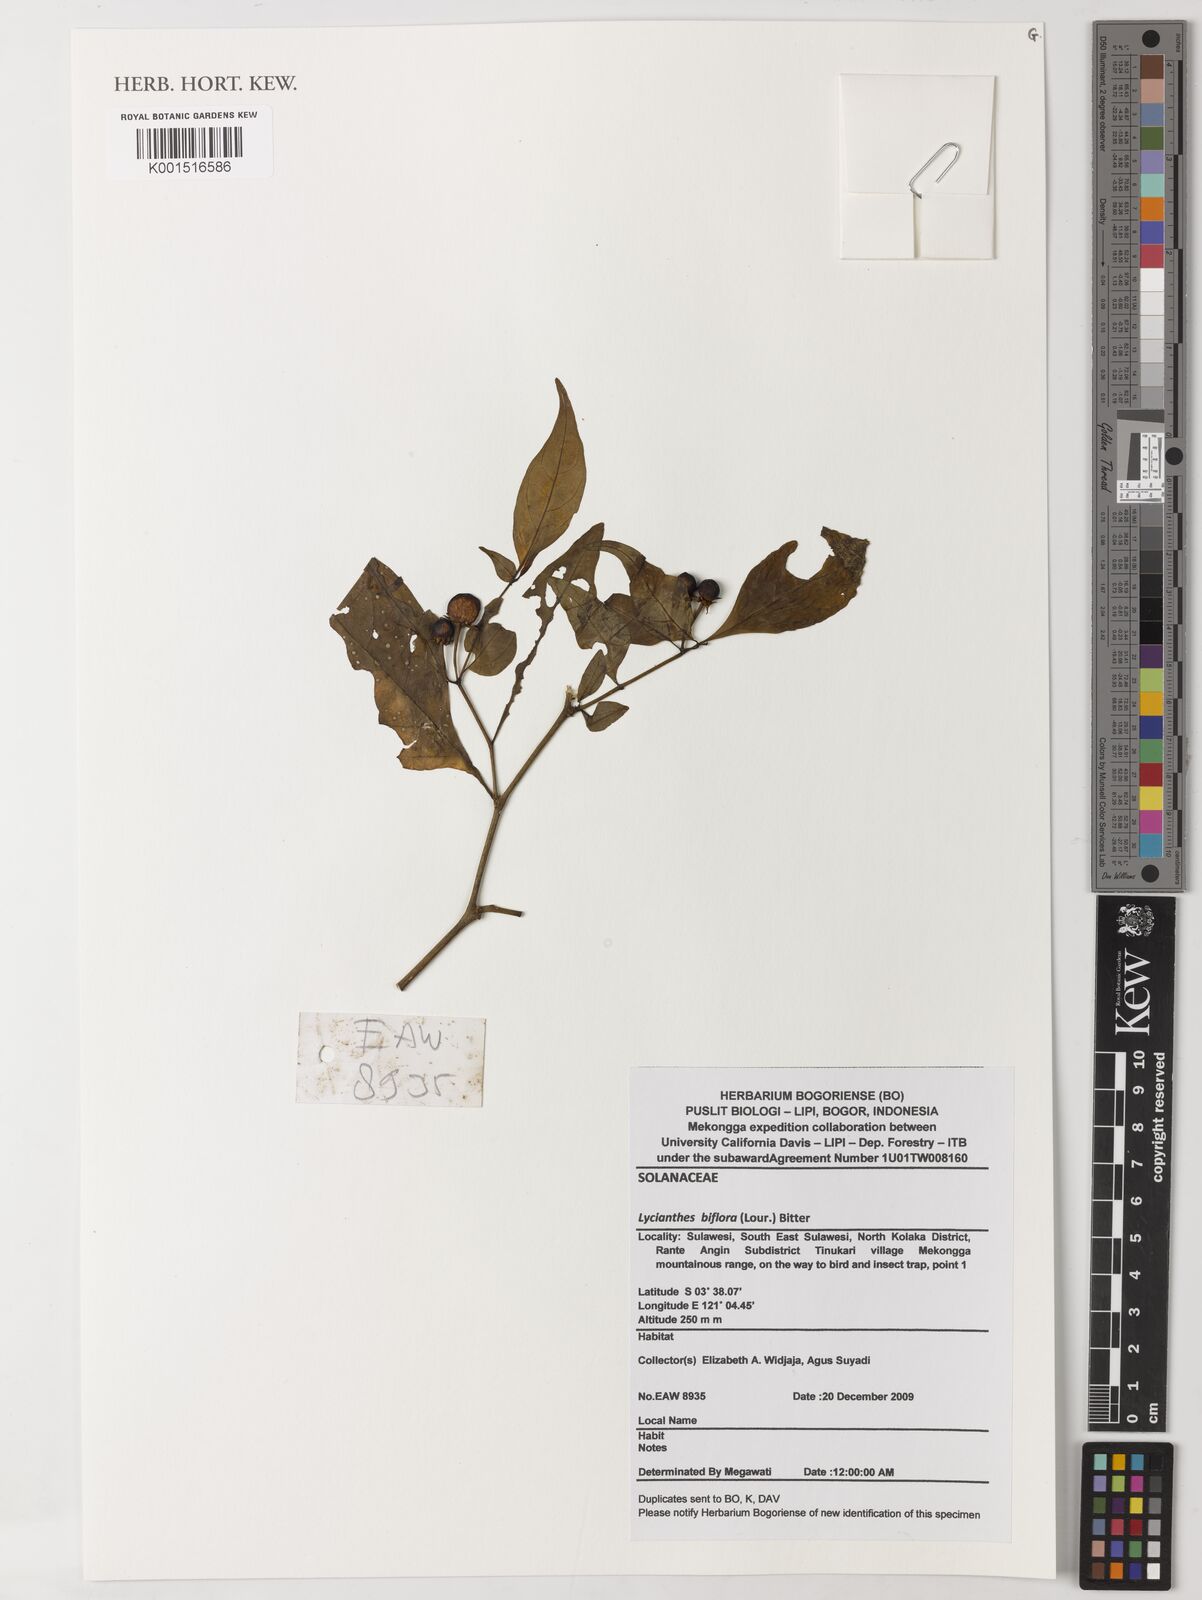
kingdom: Plantae
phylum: Tracheophyta
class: Magnoliopsida
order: Solanales
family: Solanaceae
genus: Lycianthes
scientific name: Lycianthes biflora
